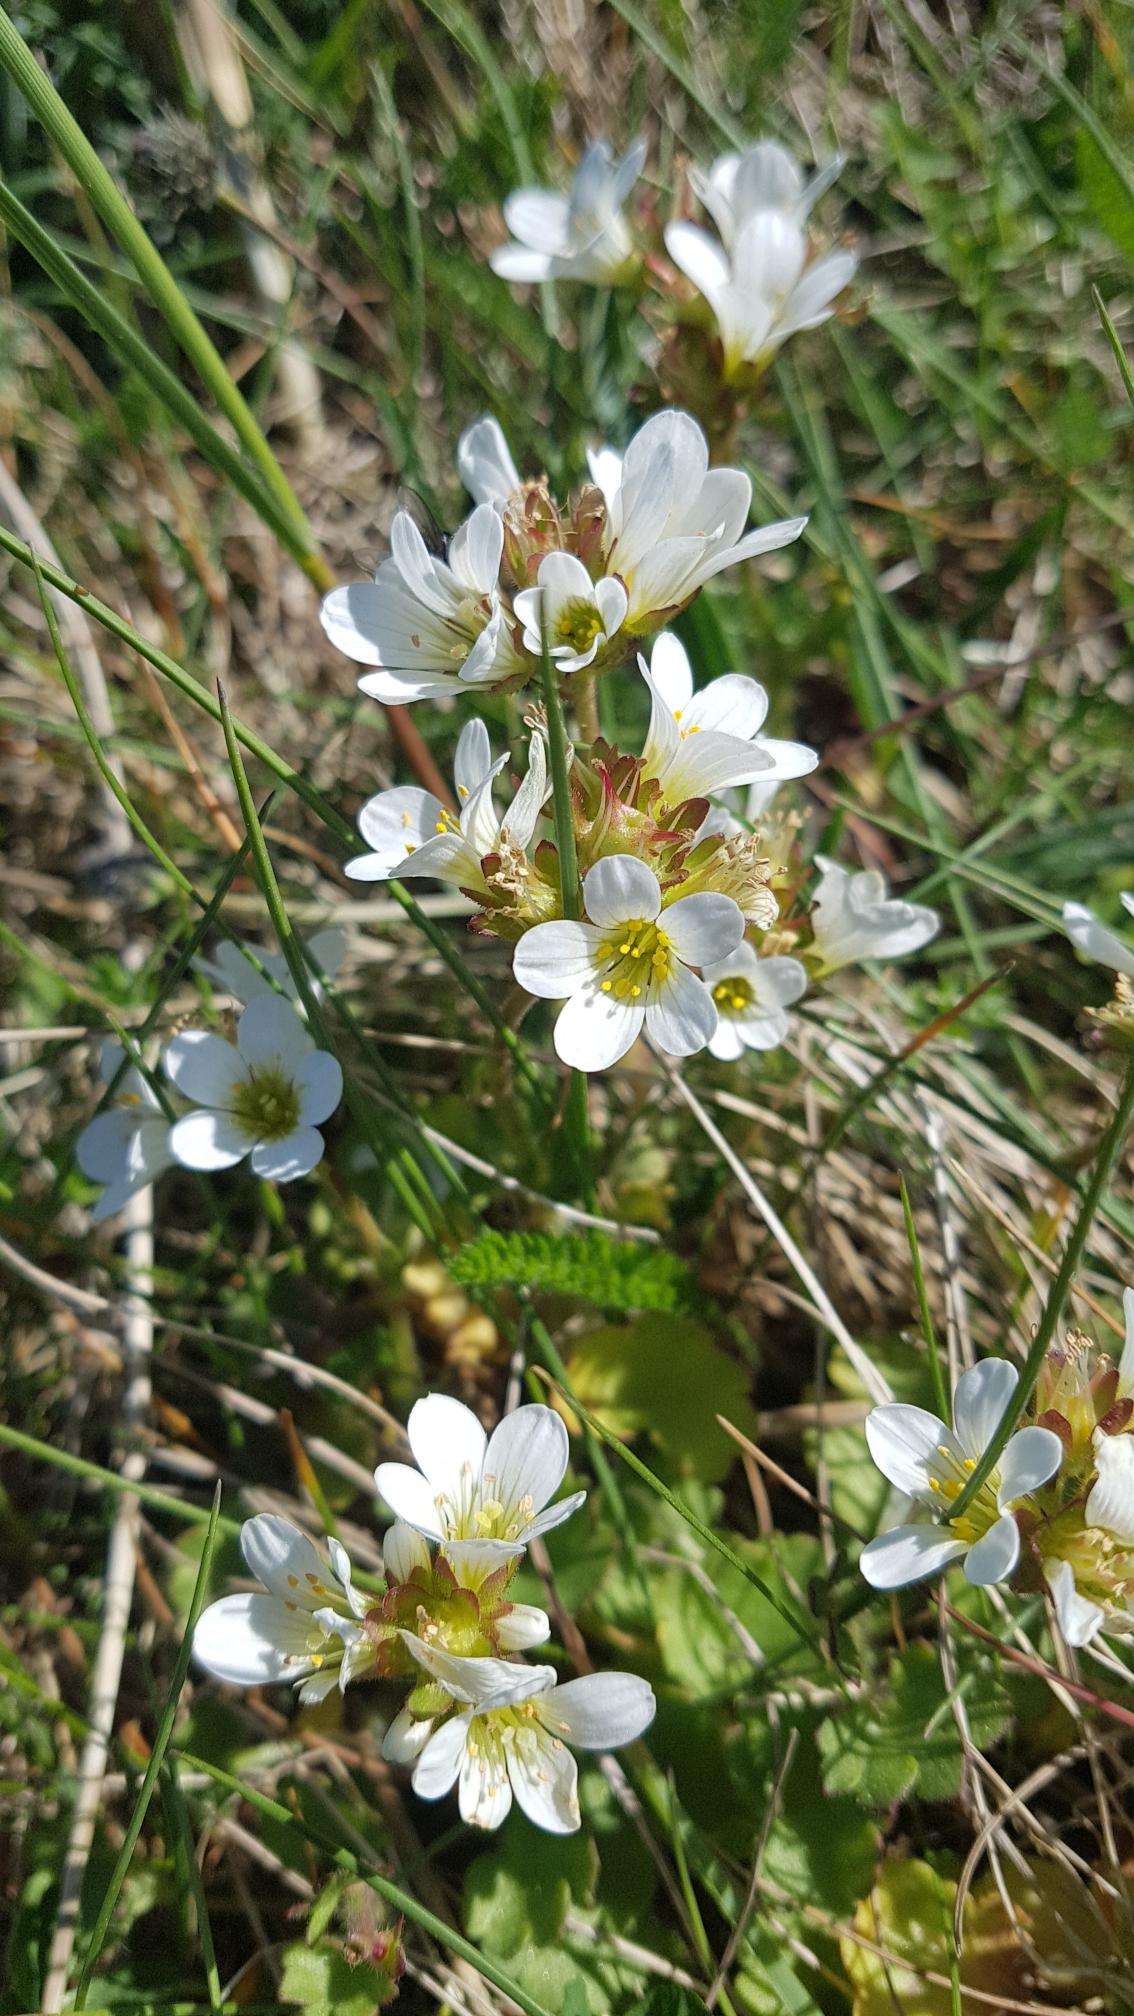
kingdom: Plantae
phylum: Tracheophyta
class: Magnoliopsida
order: Saxifragales
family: Saxifragaceae
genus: Saxifraga
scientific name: Saxifraga granulata
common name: Kornet stenbræk
